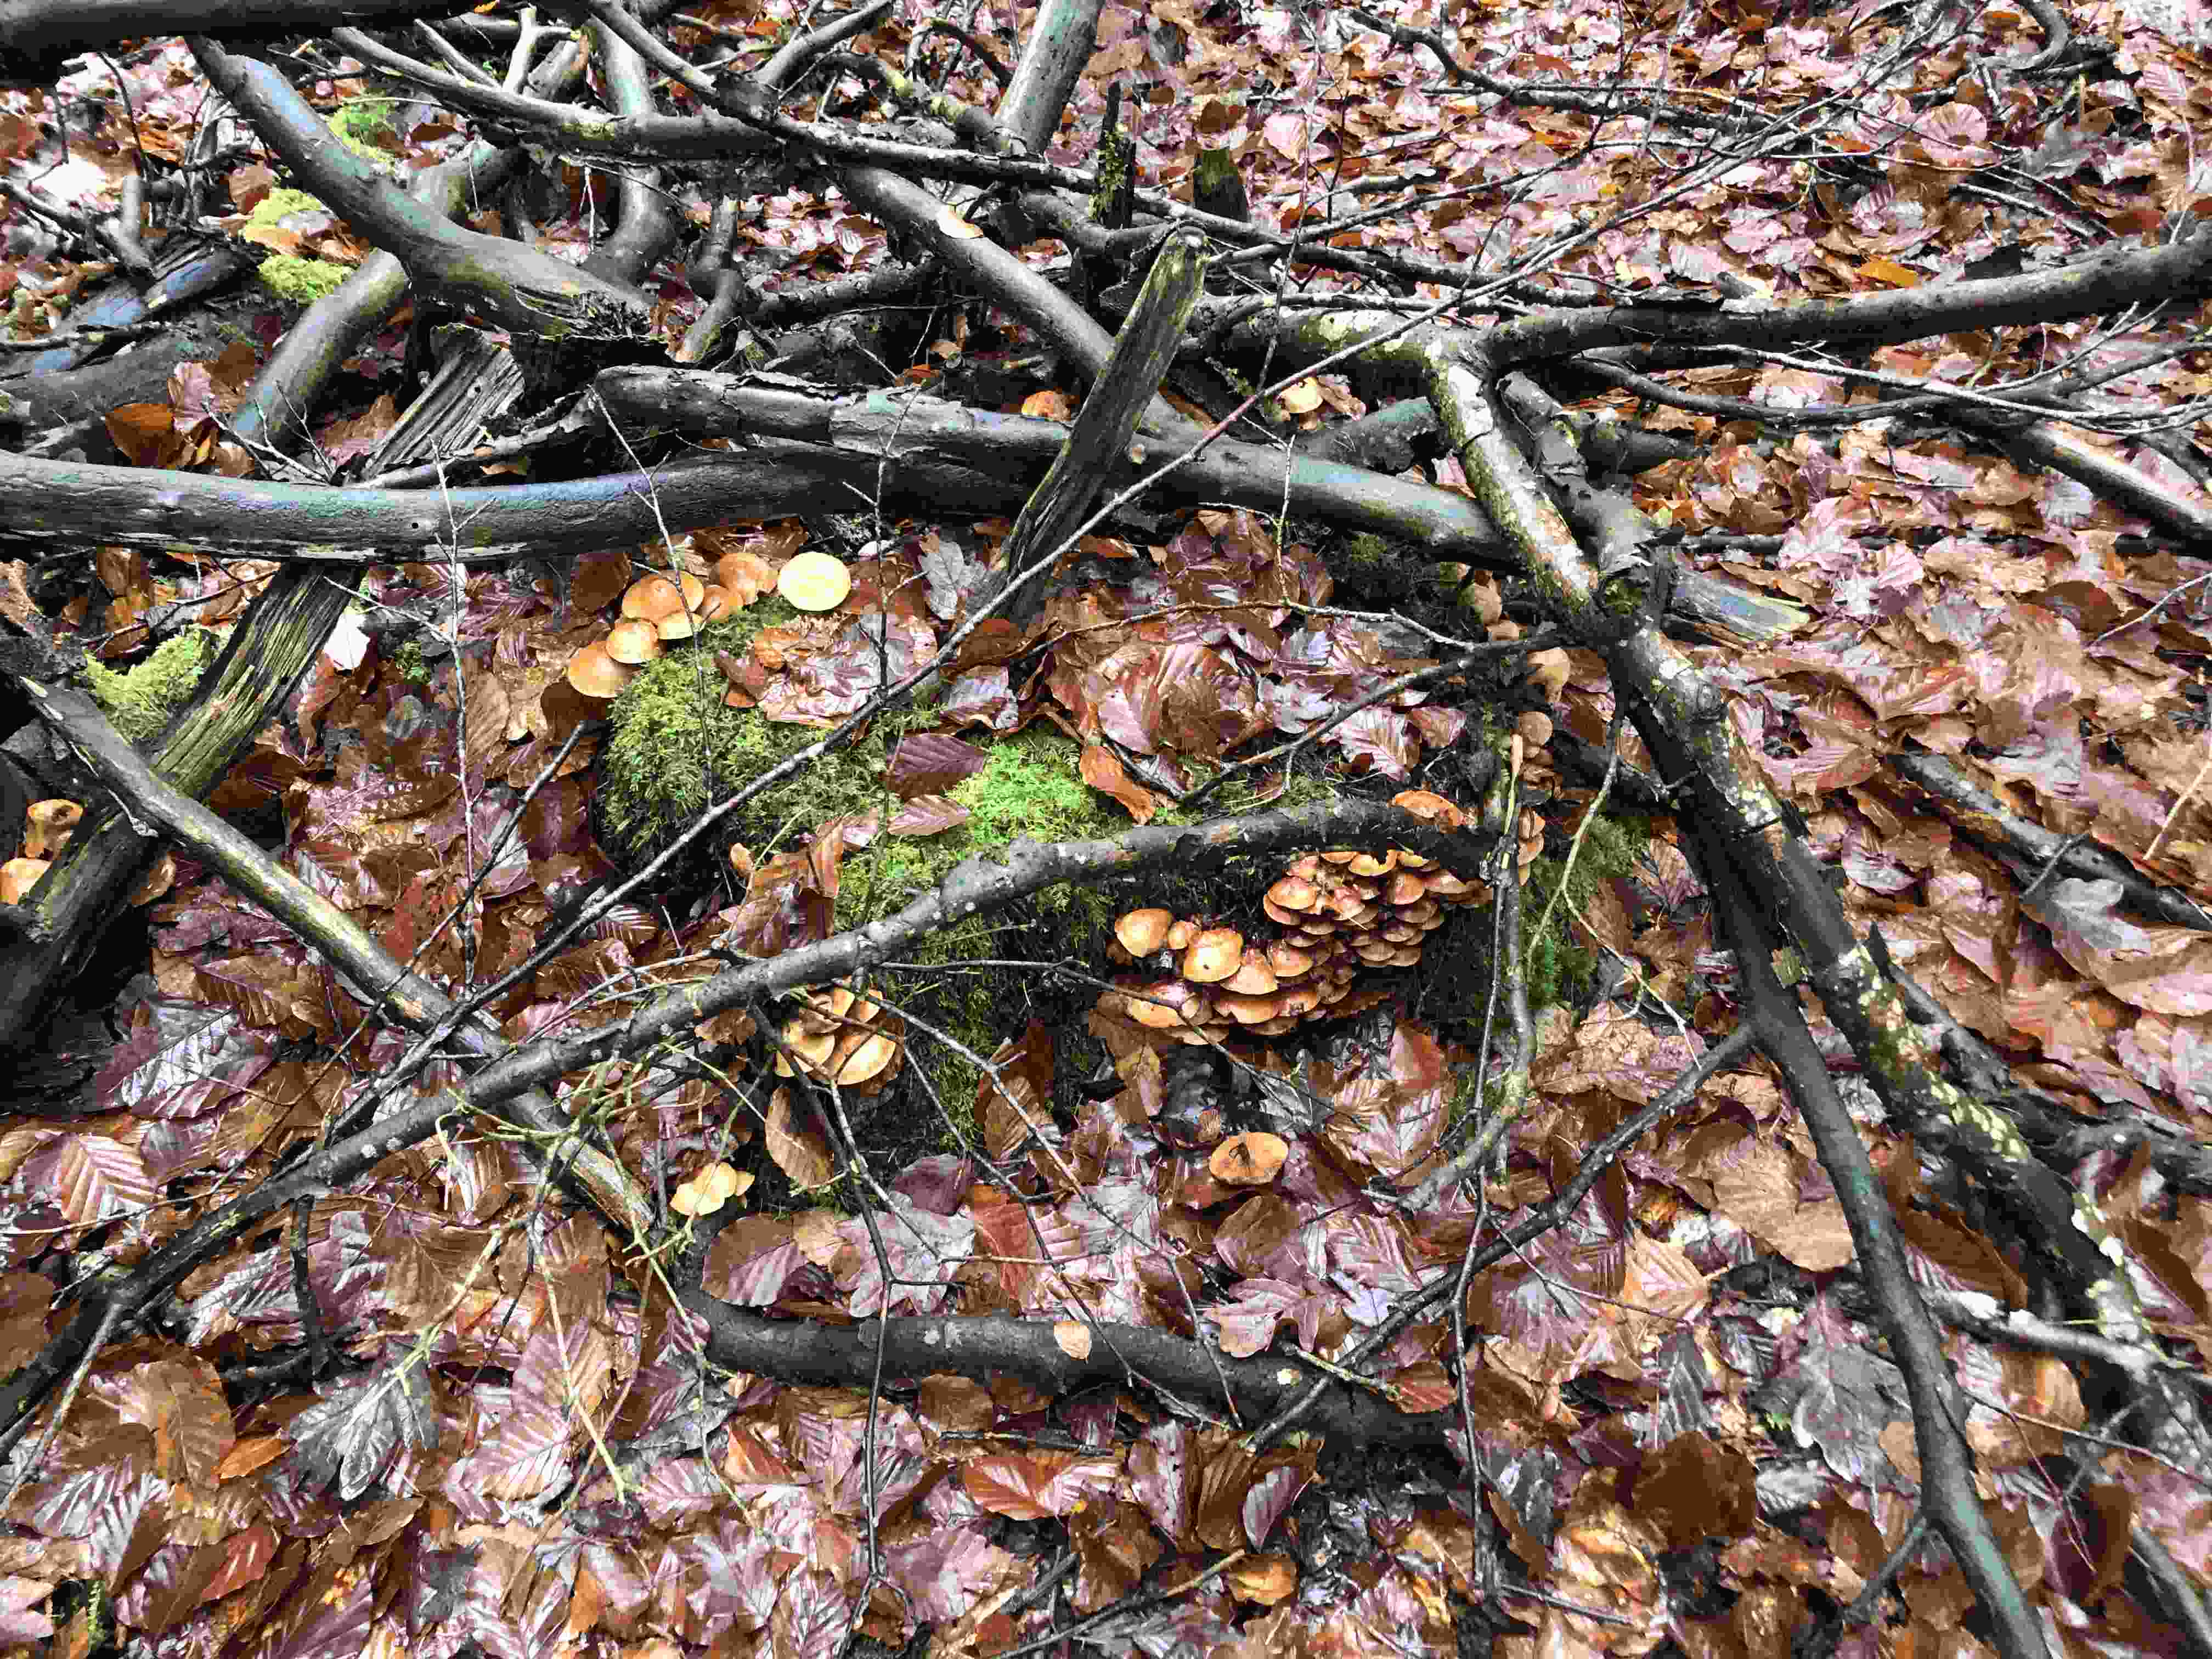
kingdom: Fungi
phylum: Basidiomycota
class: Agaricomycetes
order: Agaricales
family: Hymenogastraceae
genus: Galerina
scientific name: Galerina marginata
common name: randbæltet hjelmhat
